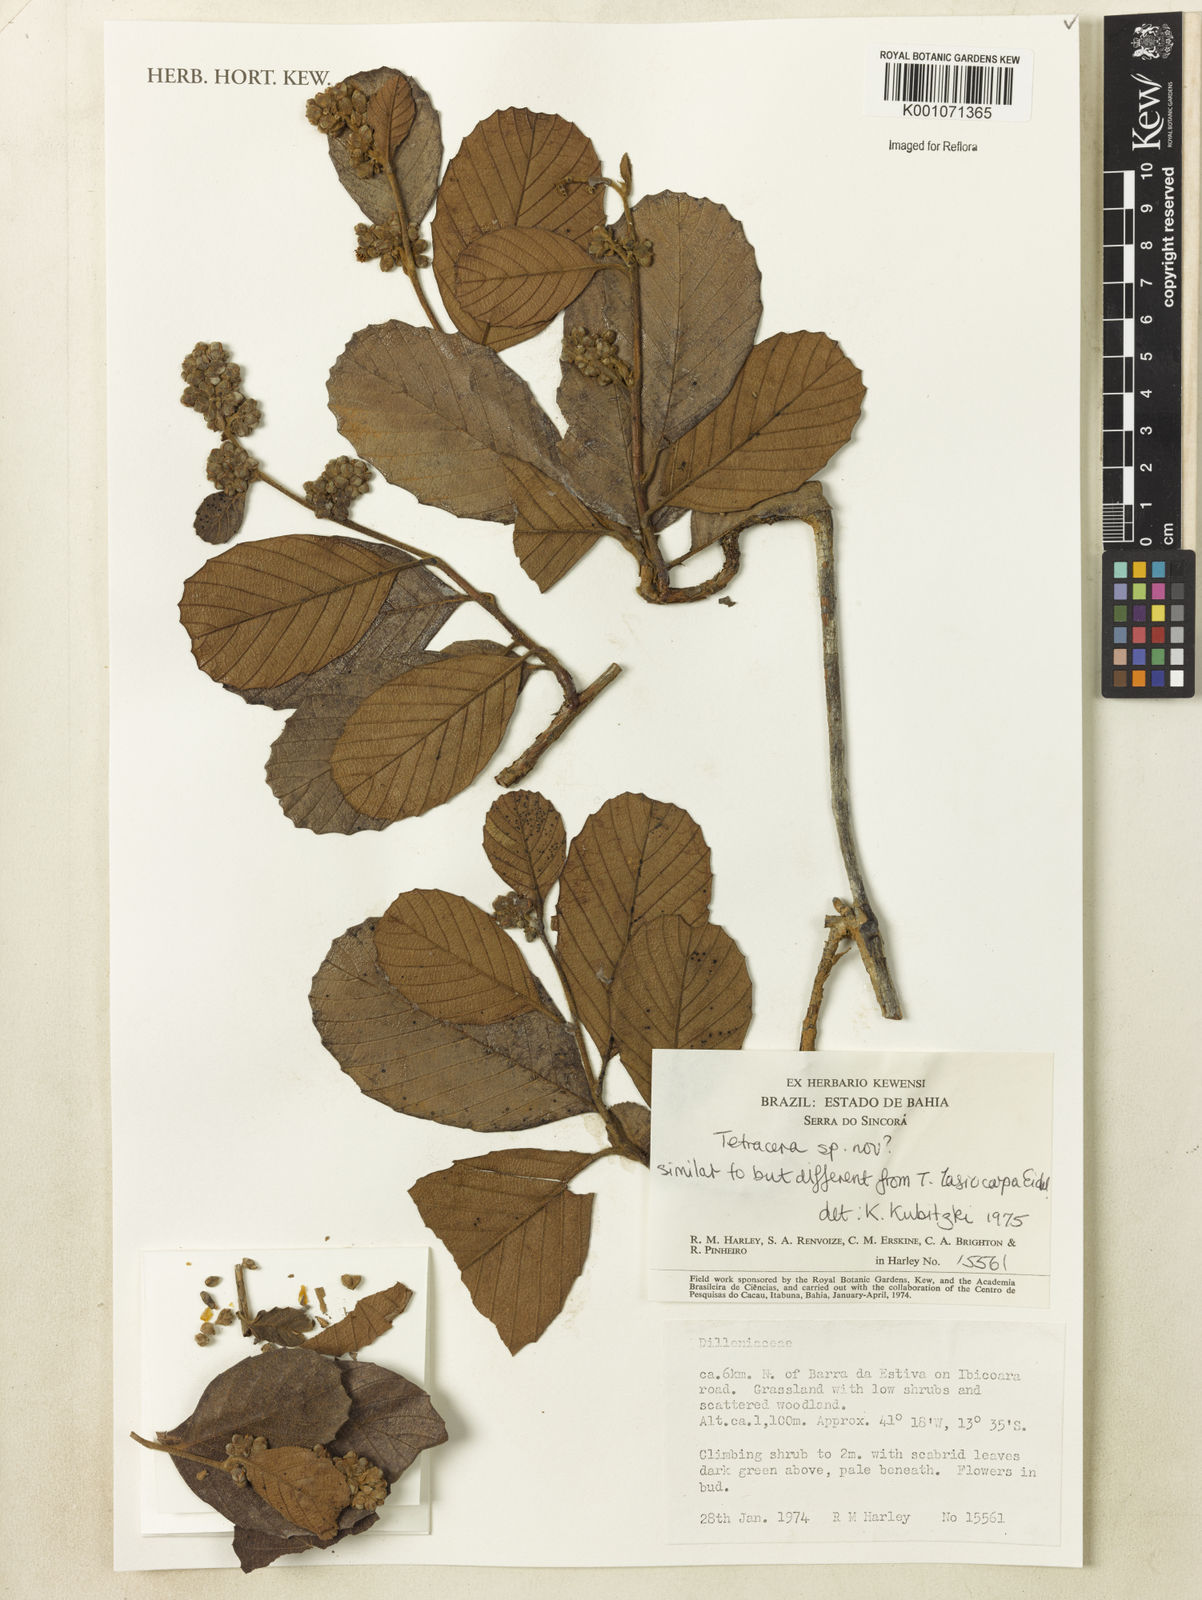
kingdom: Plantae
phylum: Tracheophyta
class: Magnoliopsida
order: Dilleniales
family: Dilleniaceae
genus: Tetracera
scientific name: Tetracera
